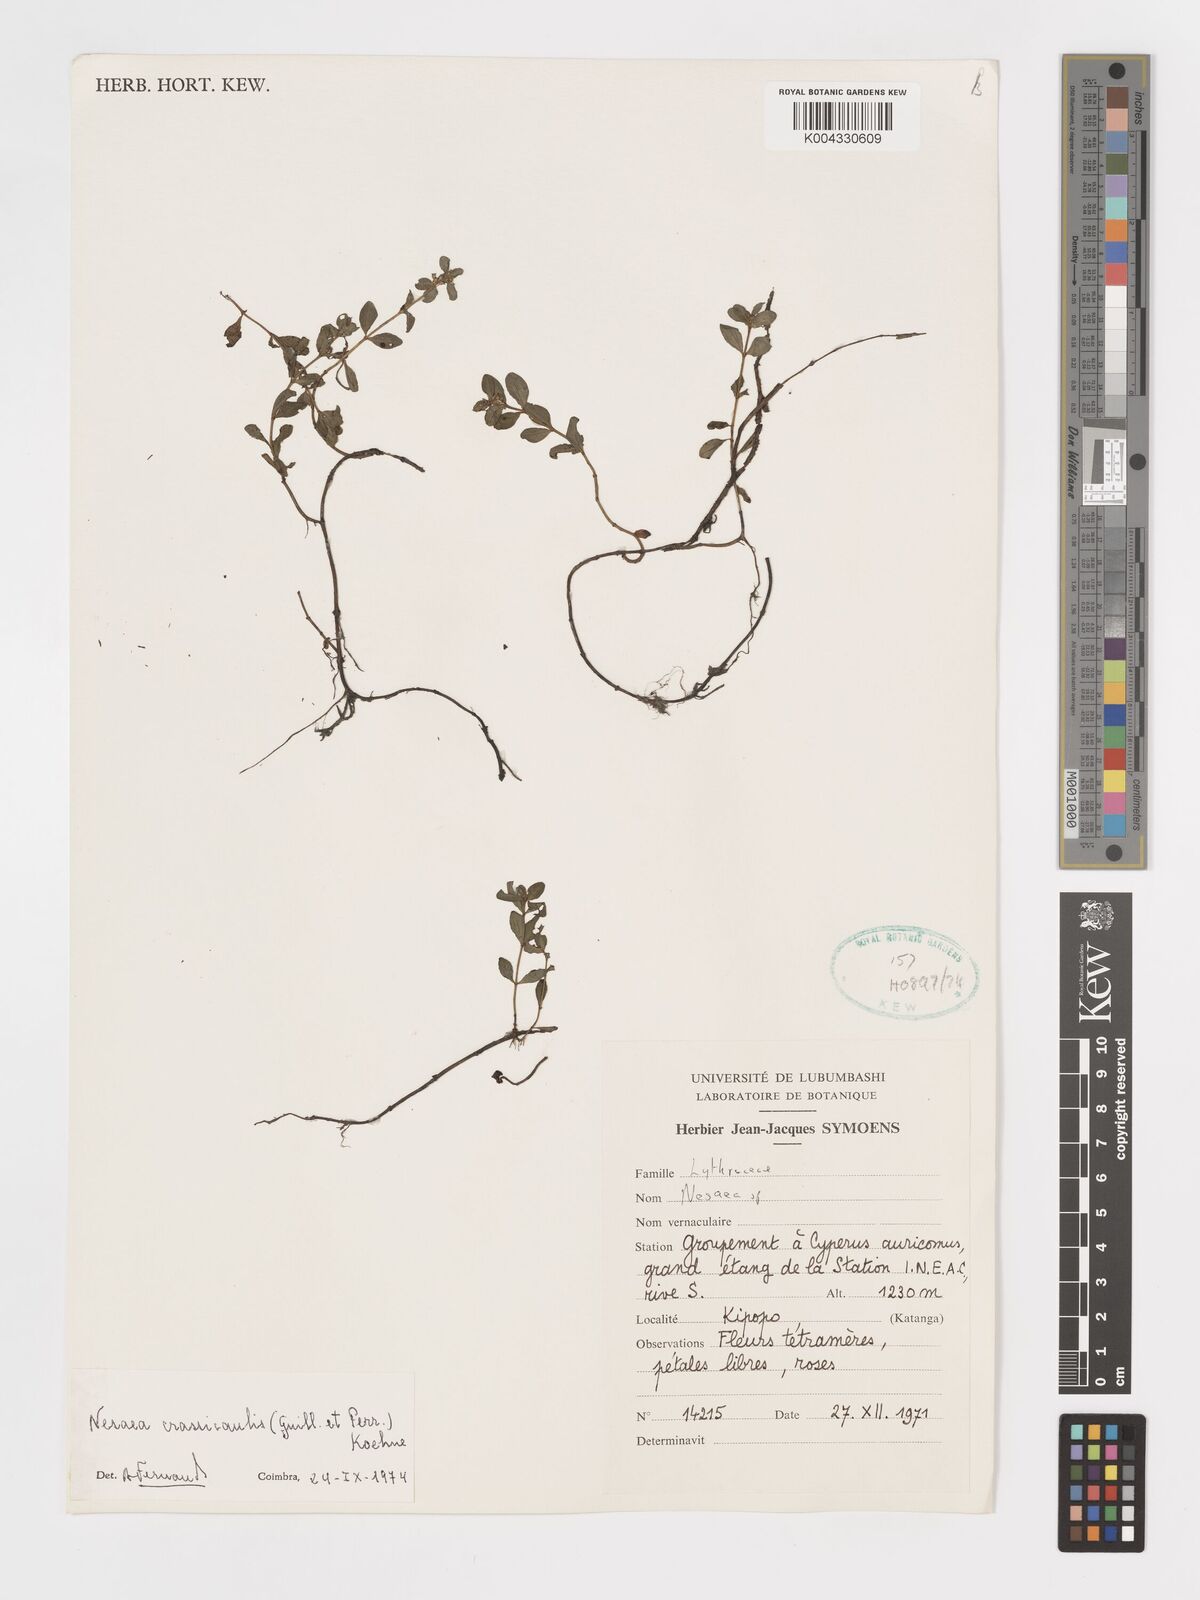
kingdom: Plantae
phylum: Tracheophyta
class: Magnoliopsida
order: Myrtales
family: Lythraceae
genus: Ammannia
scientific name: Ammannia crassicaulis
